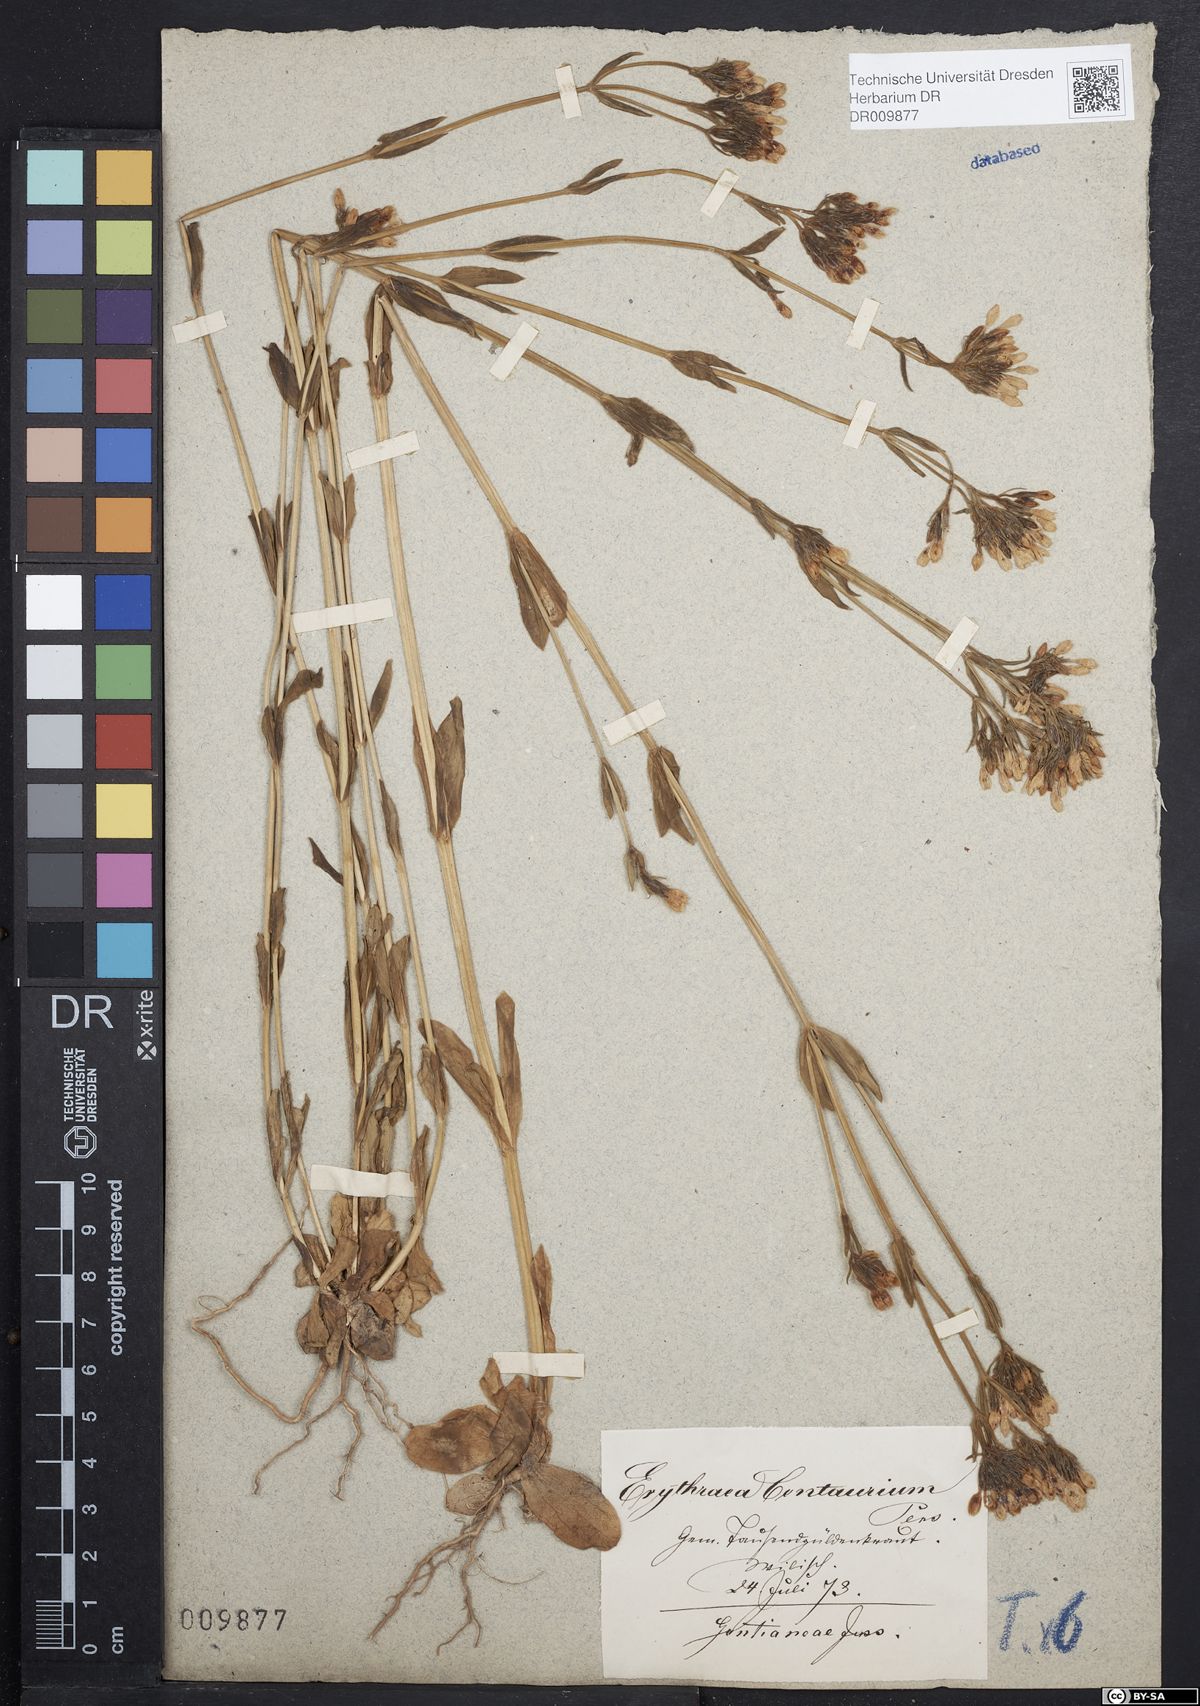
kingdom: Plantae
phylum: Tracheophyta
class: Magnoliopsida
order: Gentianales
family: Gentianaceae
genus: Centaurium
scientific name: Centaurium erythraea
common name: Common centaury
